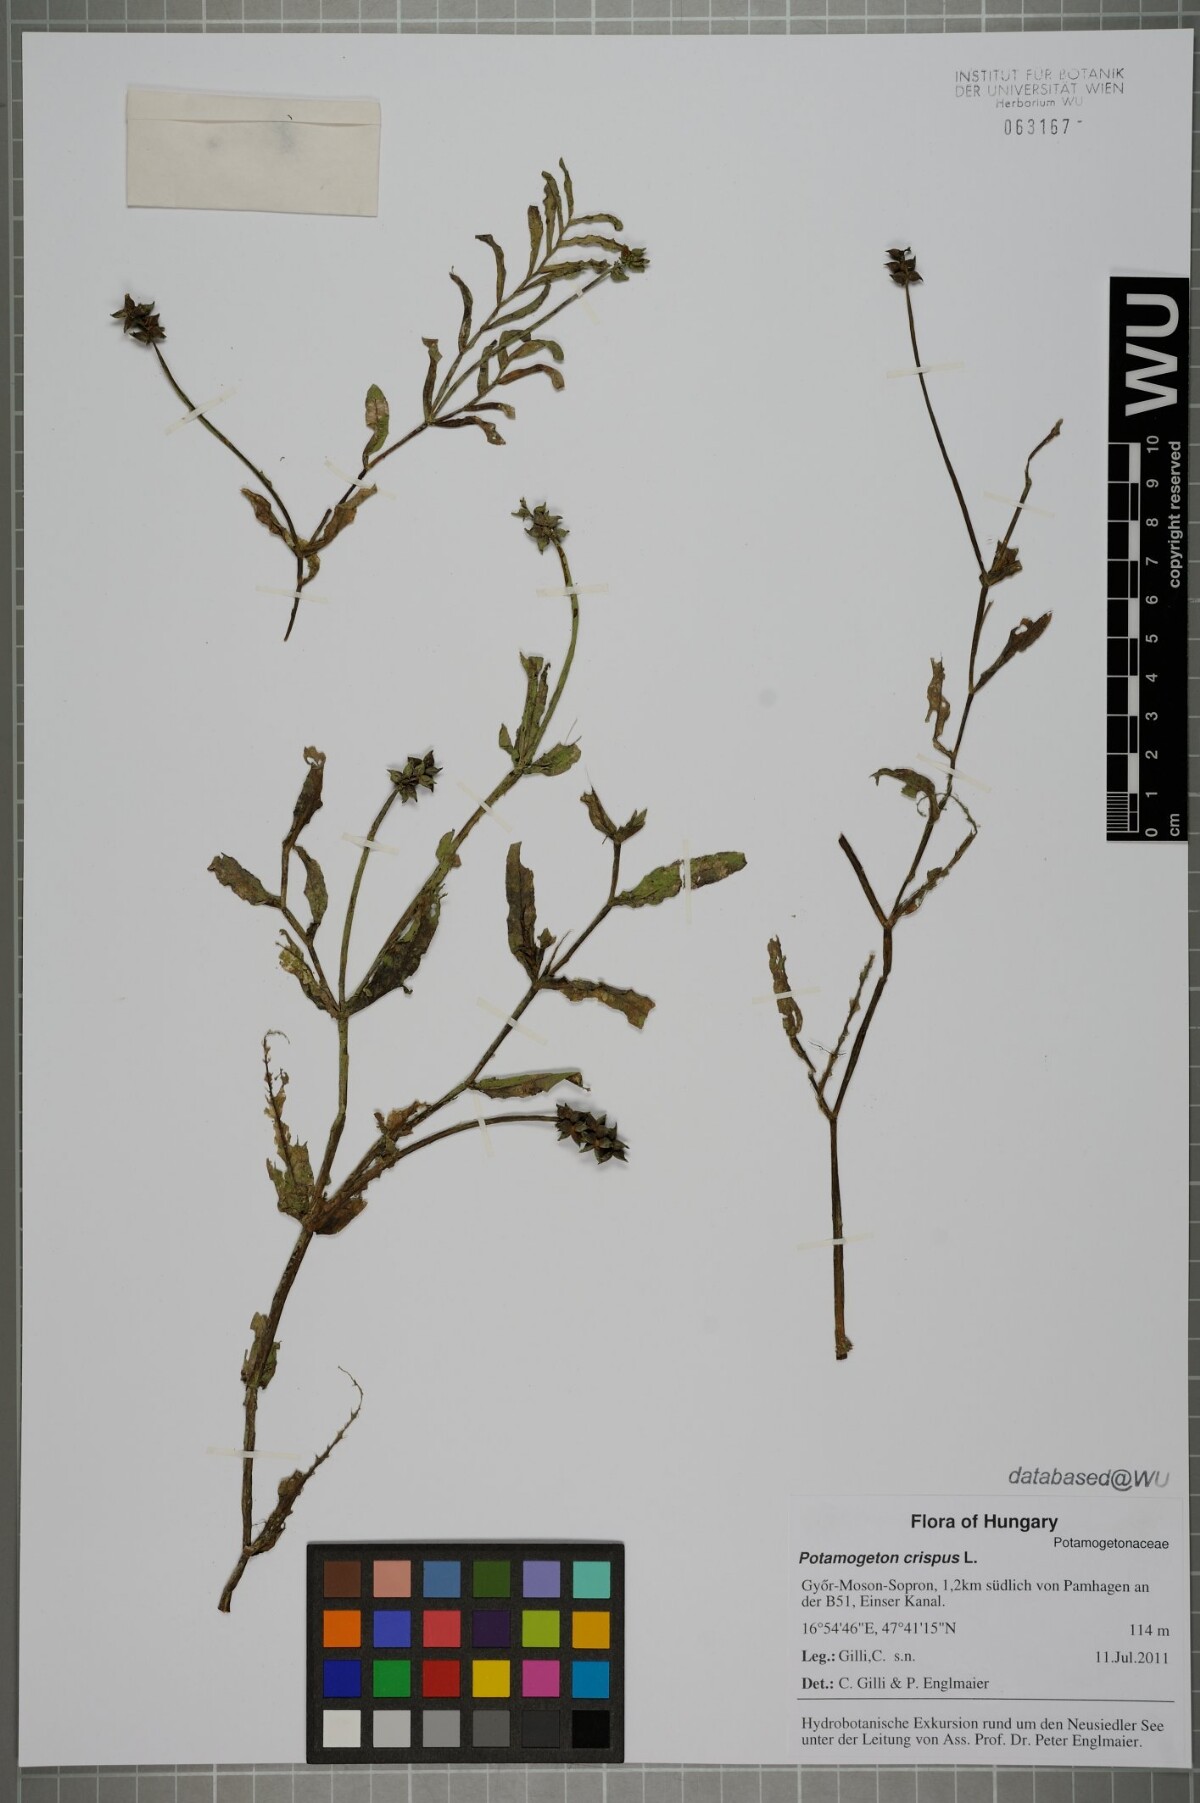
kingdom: Plantae
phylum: Tracheophyta
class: Liliopsida
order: Alismatales
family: Potamogetonaceae
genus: Potamogeton
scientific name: Potamogeton crispus
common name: Curled pondweed
